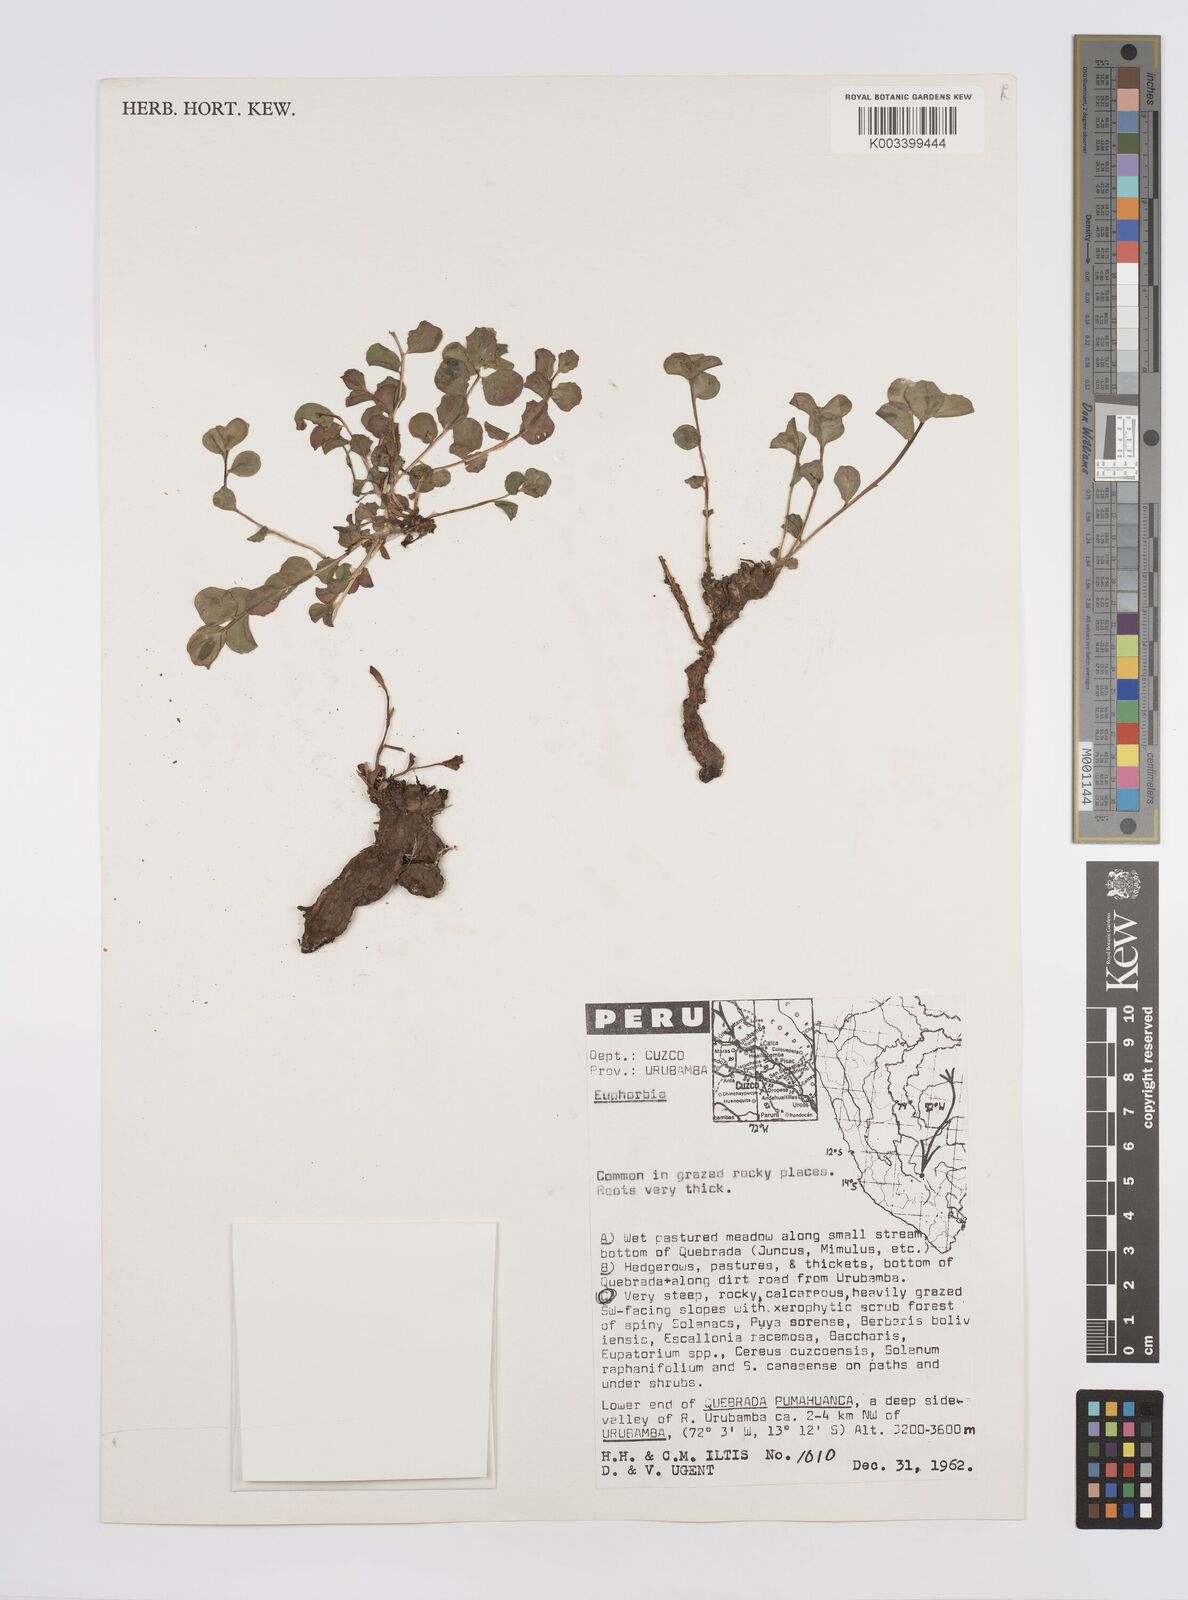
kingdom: Plantae
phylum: Tracheophyta
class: Magnoliopsida
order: Malpighiales
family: Euphorbiaceae
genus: Euphorbia
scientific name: Euphorbia
